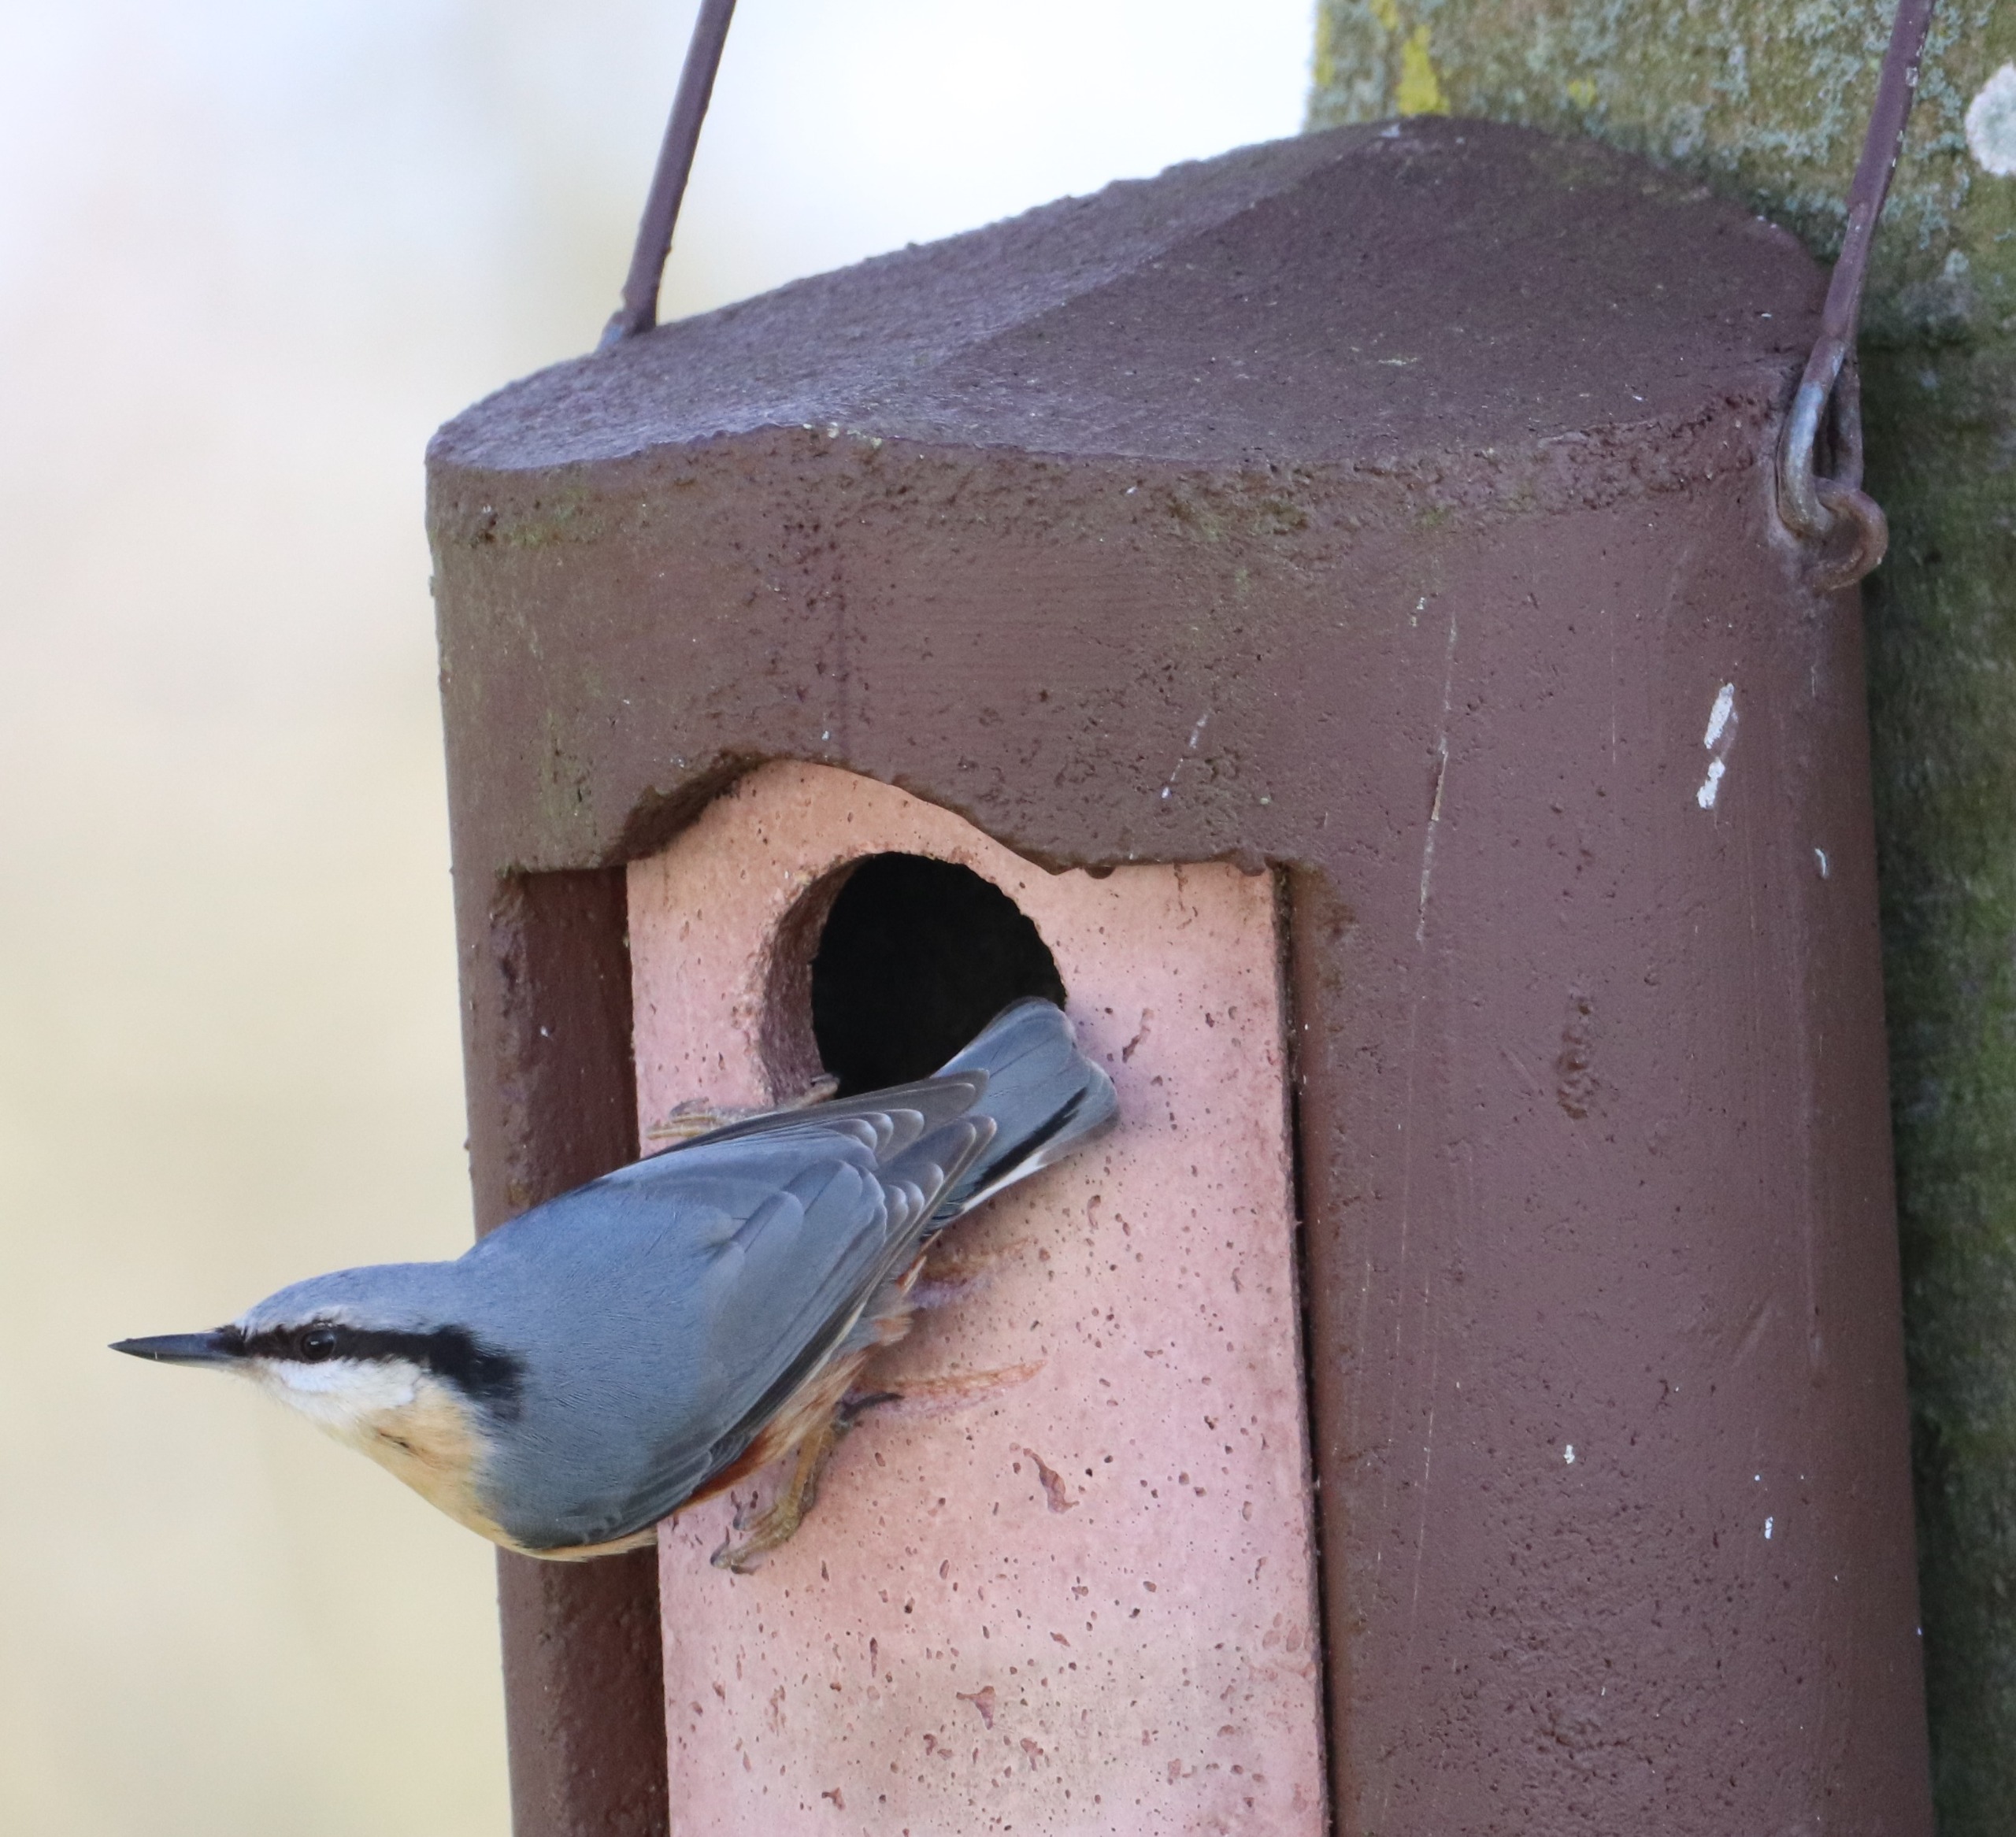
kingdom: Animalia
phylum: Chordata
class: Aves
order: Passeriformes
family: Sittidae
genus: Sitta
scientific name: Sitta europaea
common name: Spætmejse
